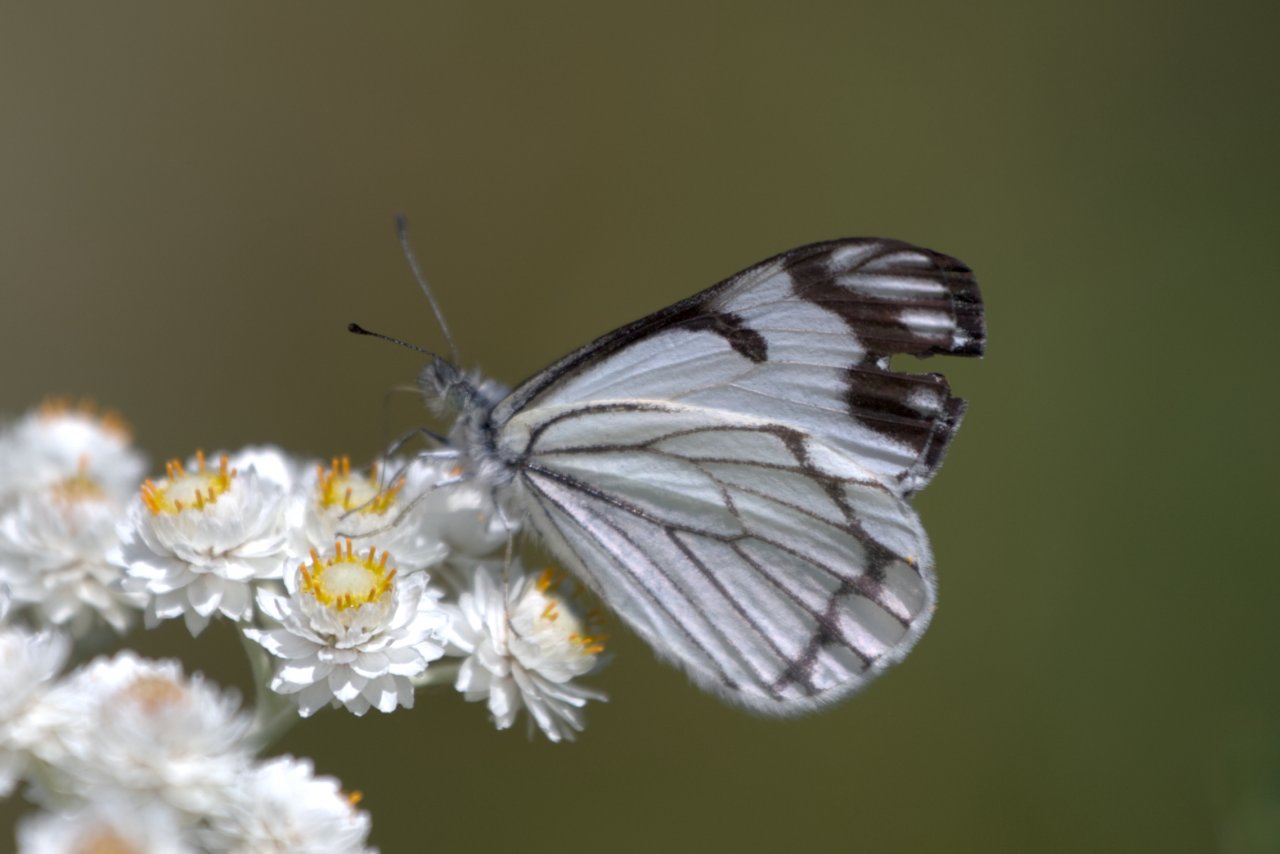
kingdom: Animalia
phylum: Arthropoda
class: Insecta
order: Lepidoptera
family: Pieridae
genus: Neophasia
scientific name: Neophasia menapia
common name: Pine White
